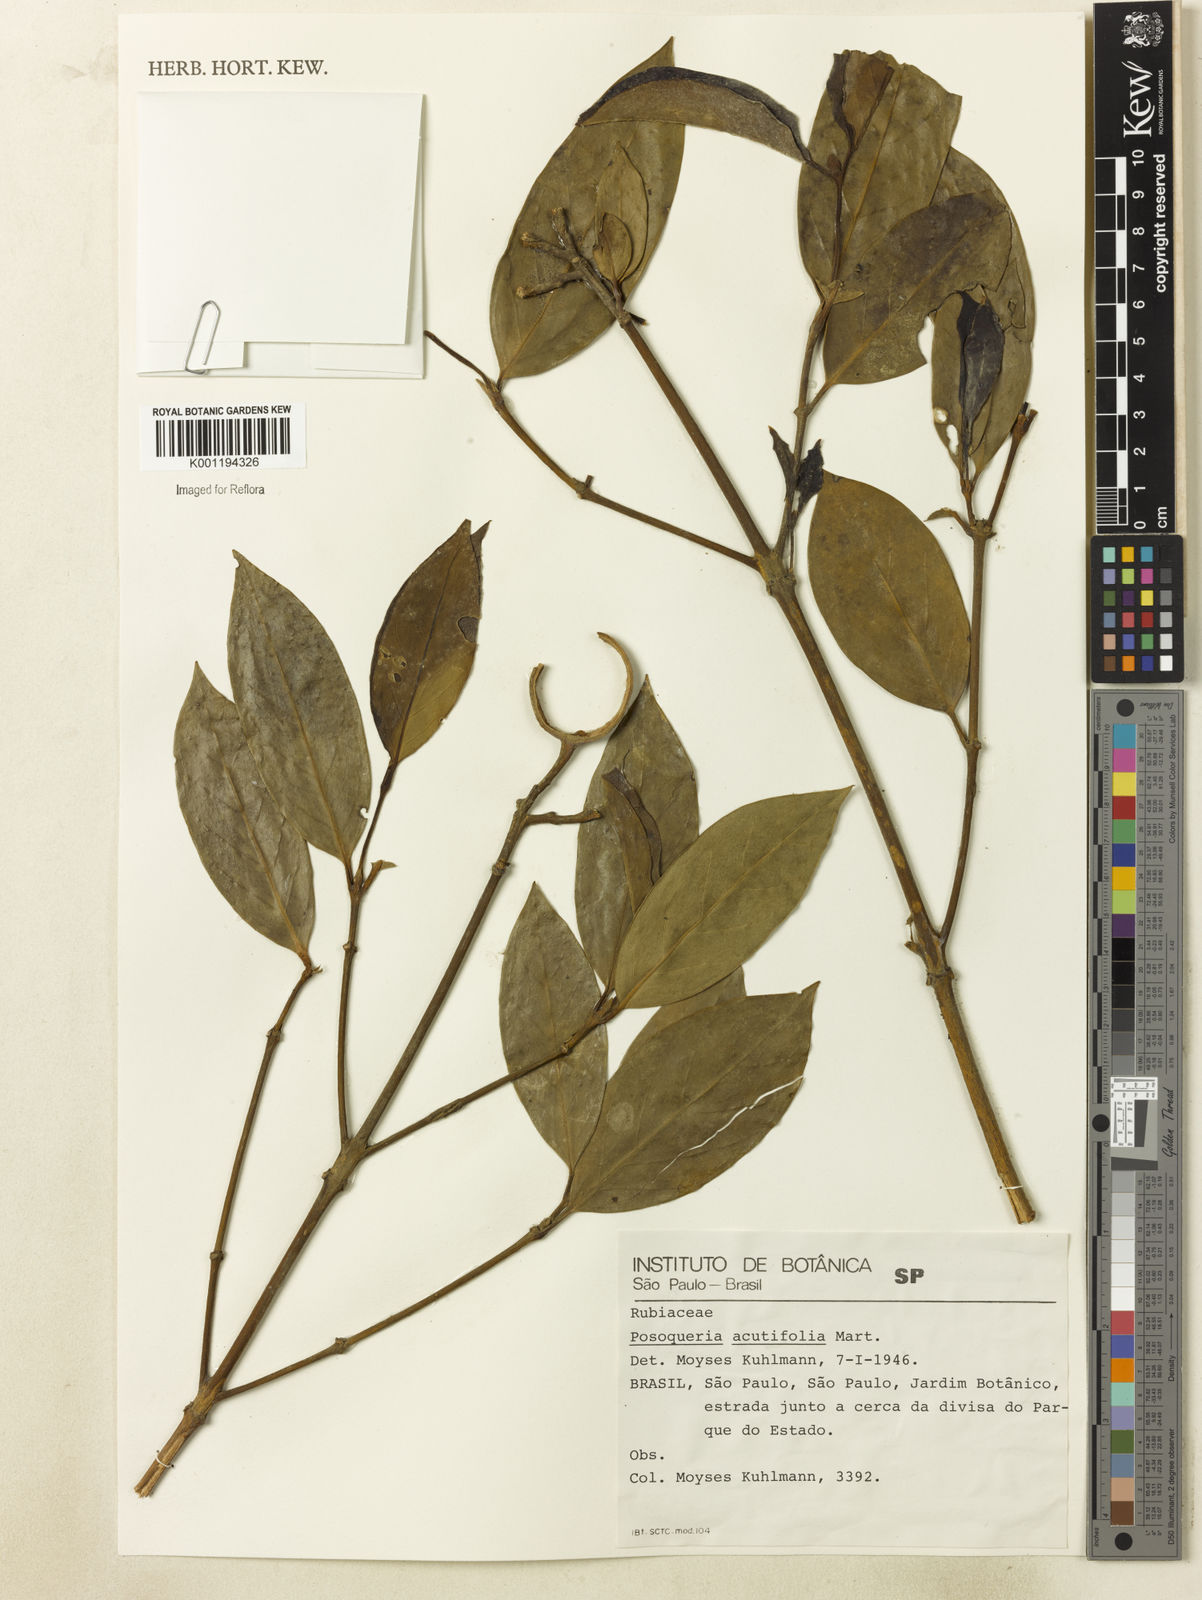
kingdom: Plantae
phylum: Tracheophyta
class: Magnoliopsida
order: Gentianales
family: Rubiaceae
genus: Posoqueria
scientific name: Posoqueria latifolia
